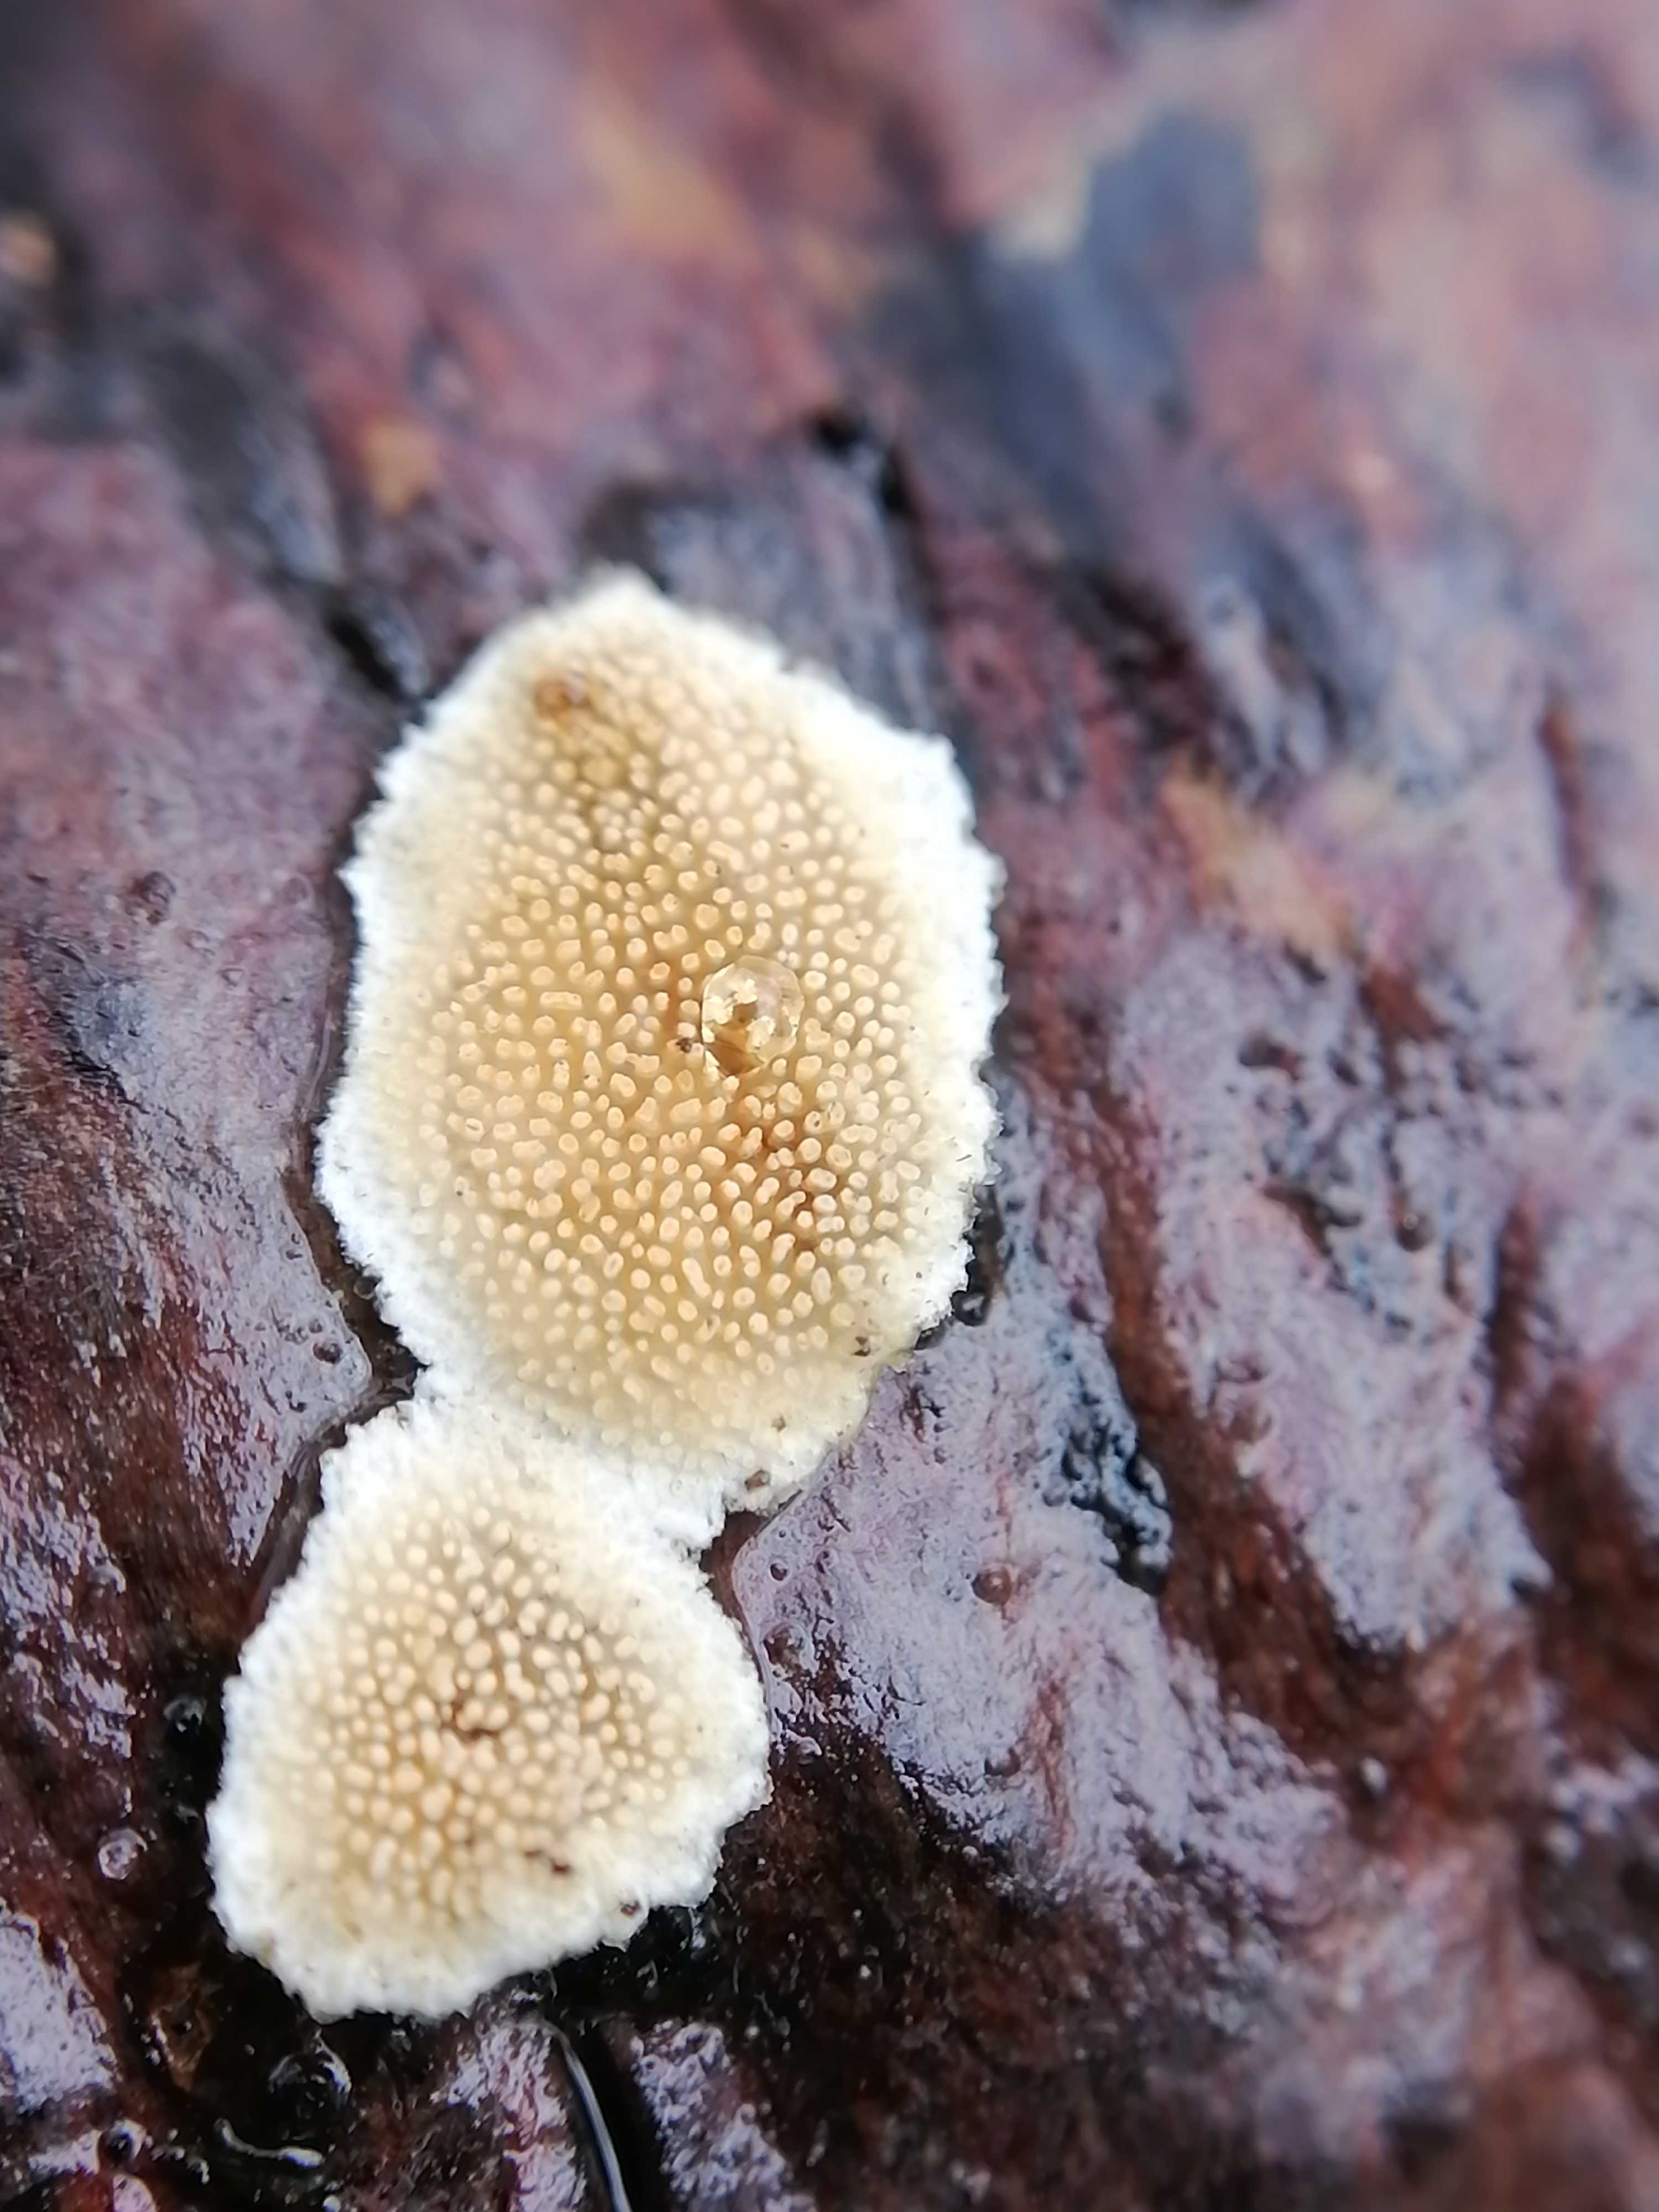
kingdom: Fungi
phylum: Basidiomycota
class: Agaricomycetes
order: Polyporales
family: Steccherinaceae
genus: Steccherinum
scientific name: Steccherinum ochraceum
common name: almindelig skønpig
